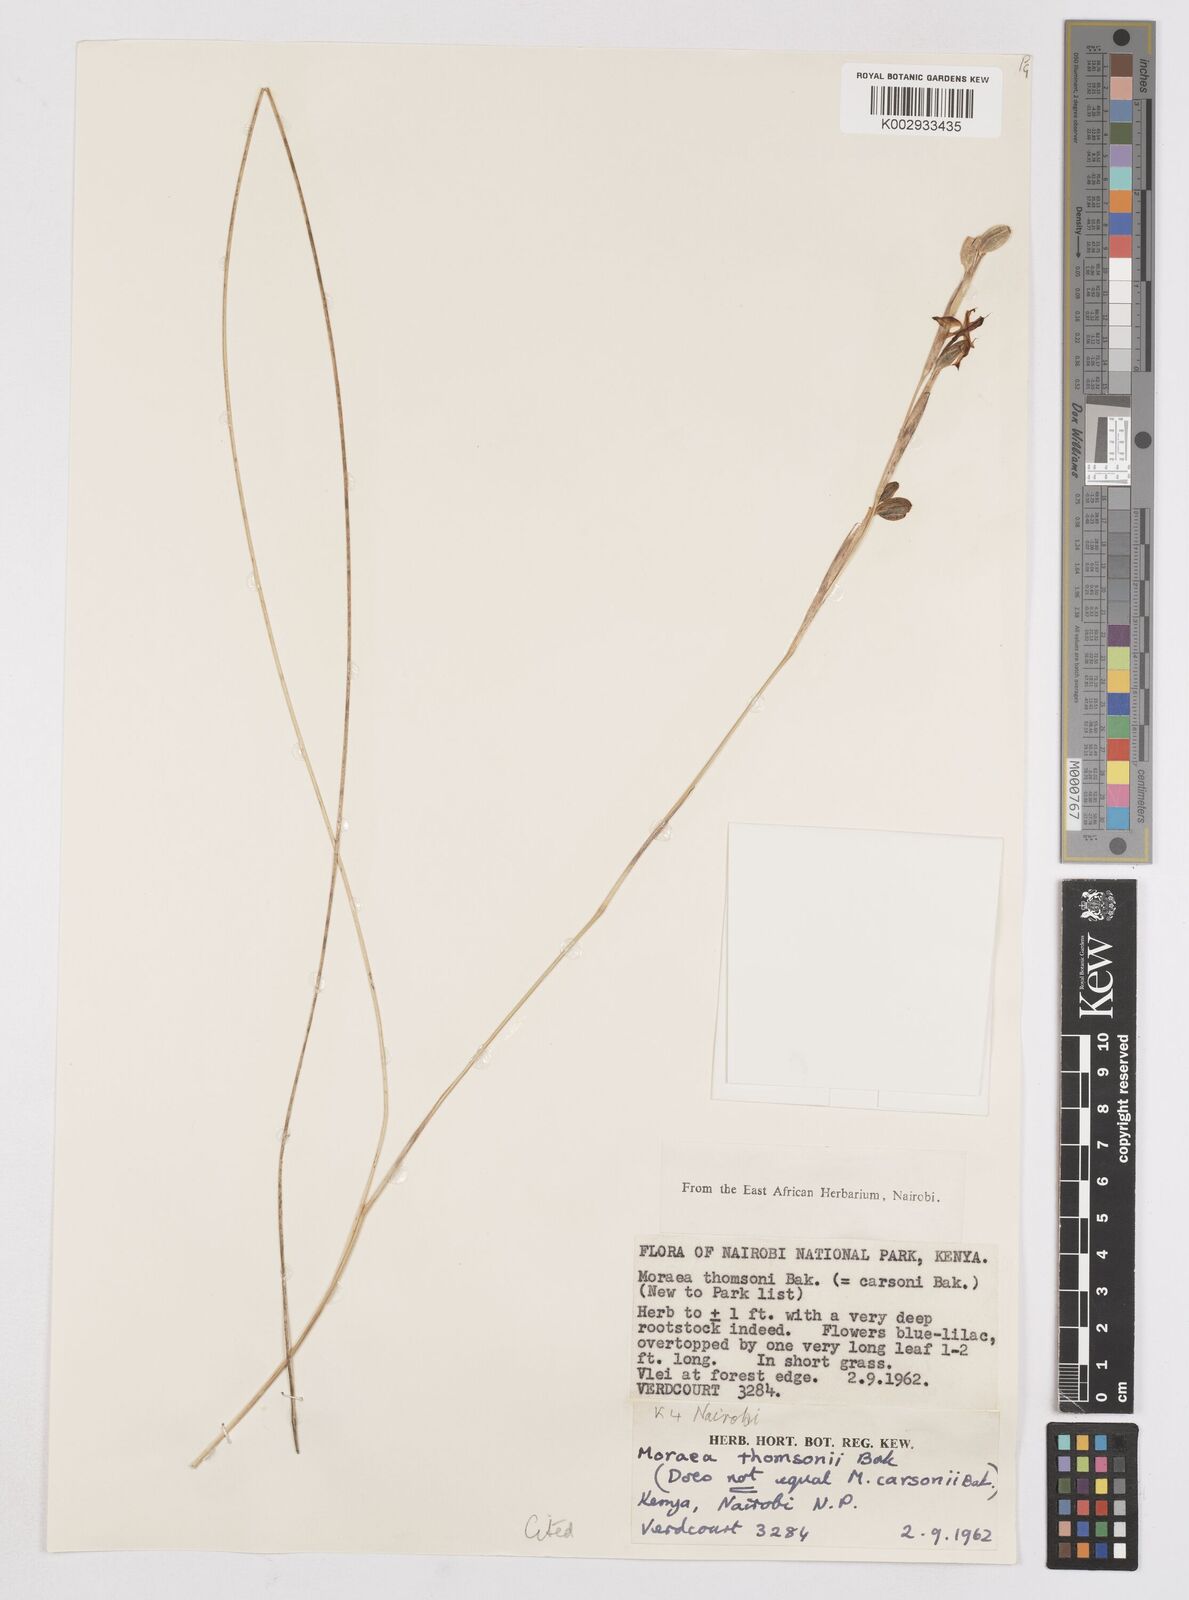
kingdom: Plantae
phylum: Tracheophyta
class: Liliopsida
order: Asparagales
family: Iridaceae
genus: Moraea
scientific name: Moraea stricta
